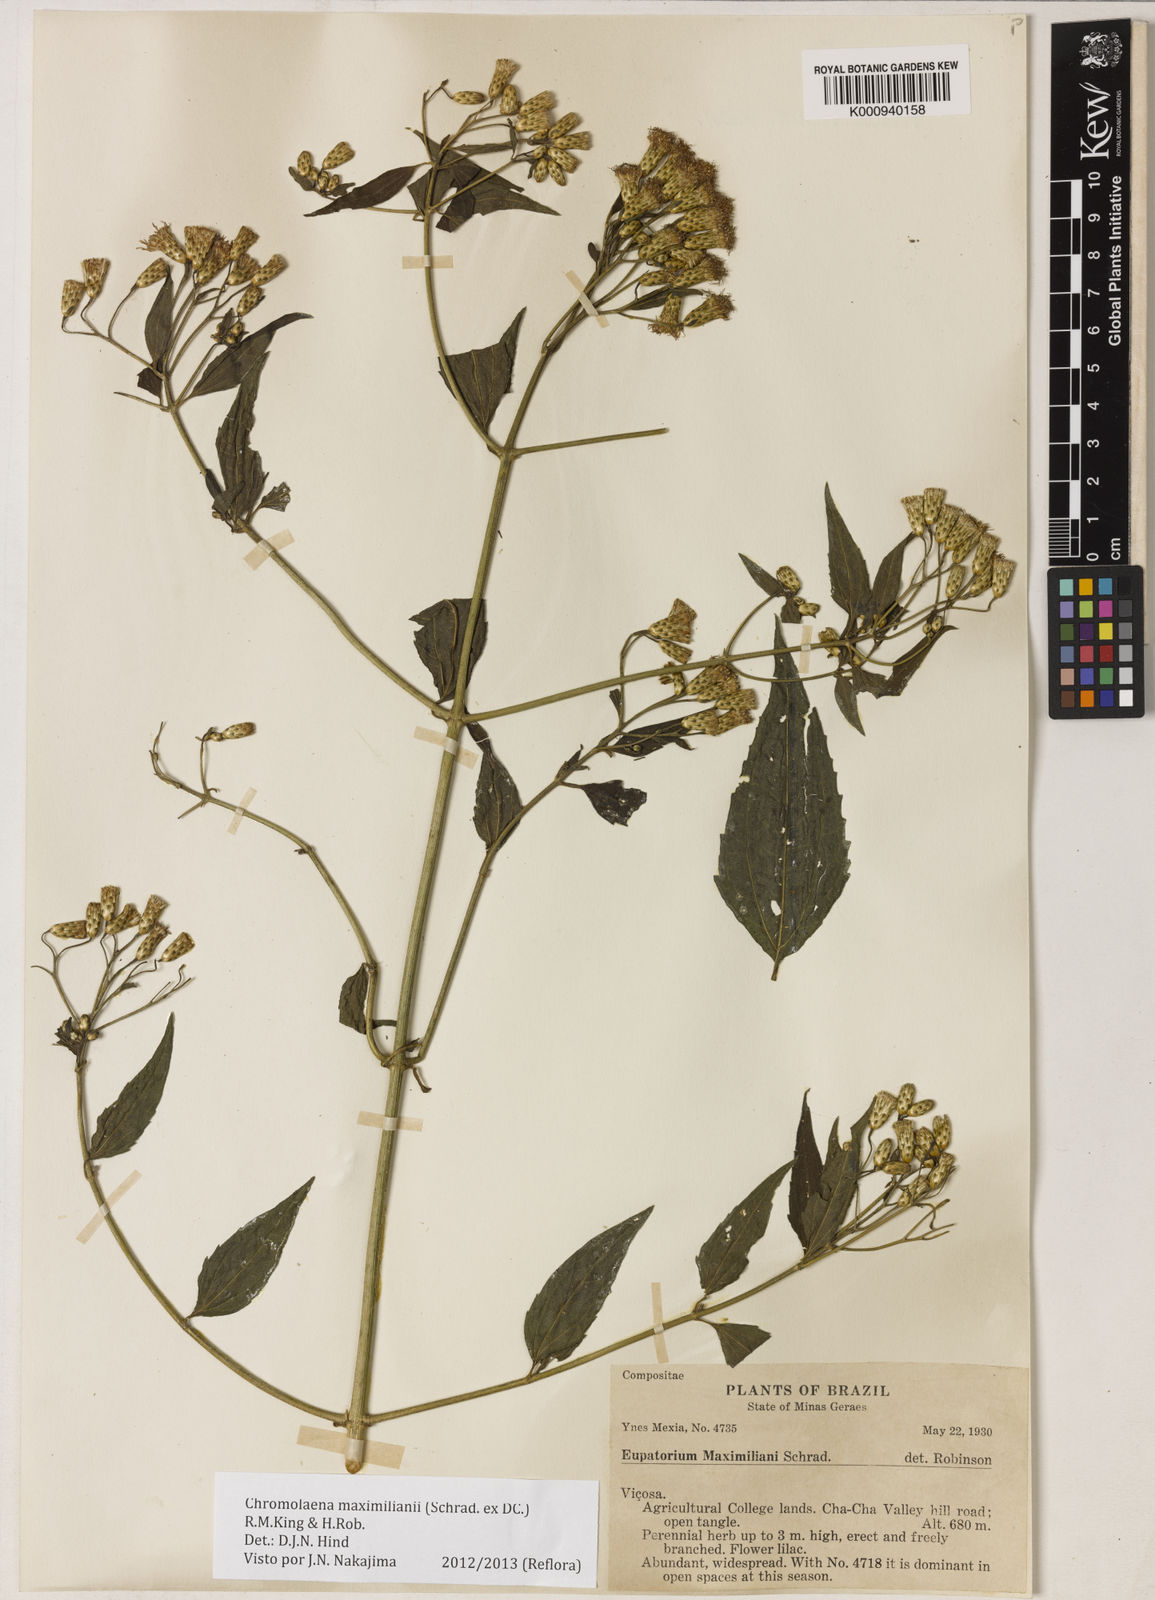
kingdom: Plantae
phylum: Tracheophyta
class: Magnoliopsida
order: Asterales
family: Asteraceae
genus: Chromolaena
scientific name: Chromolaena maximiliani
